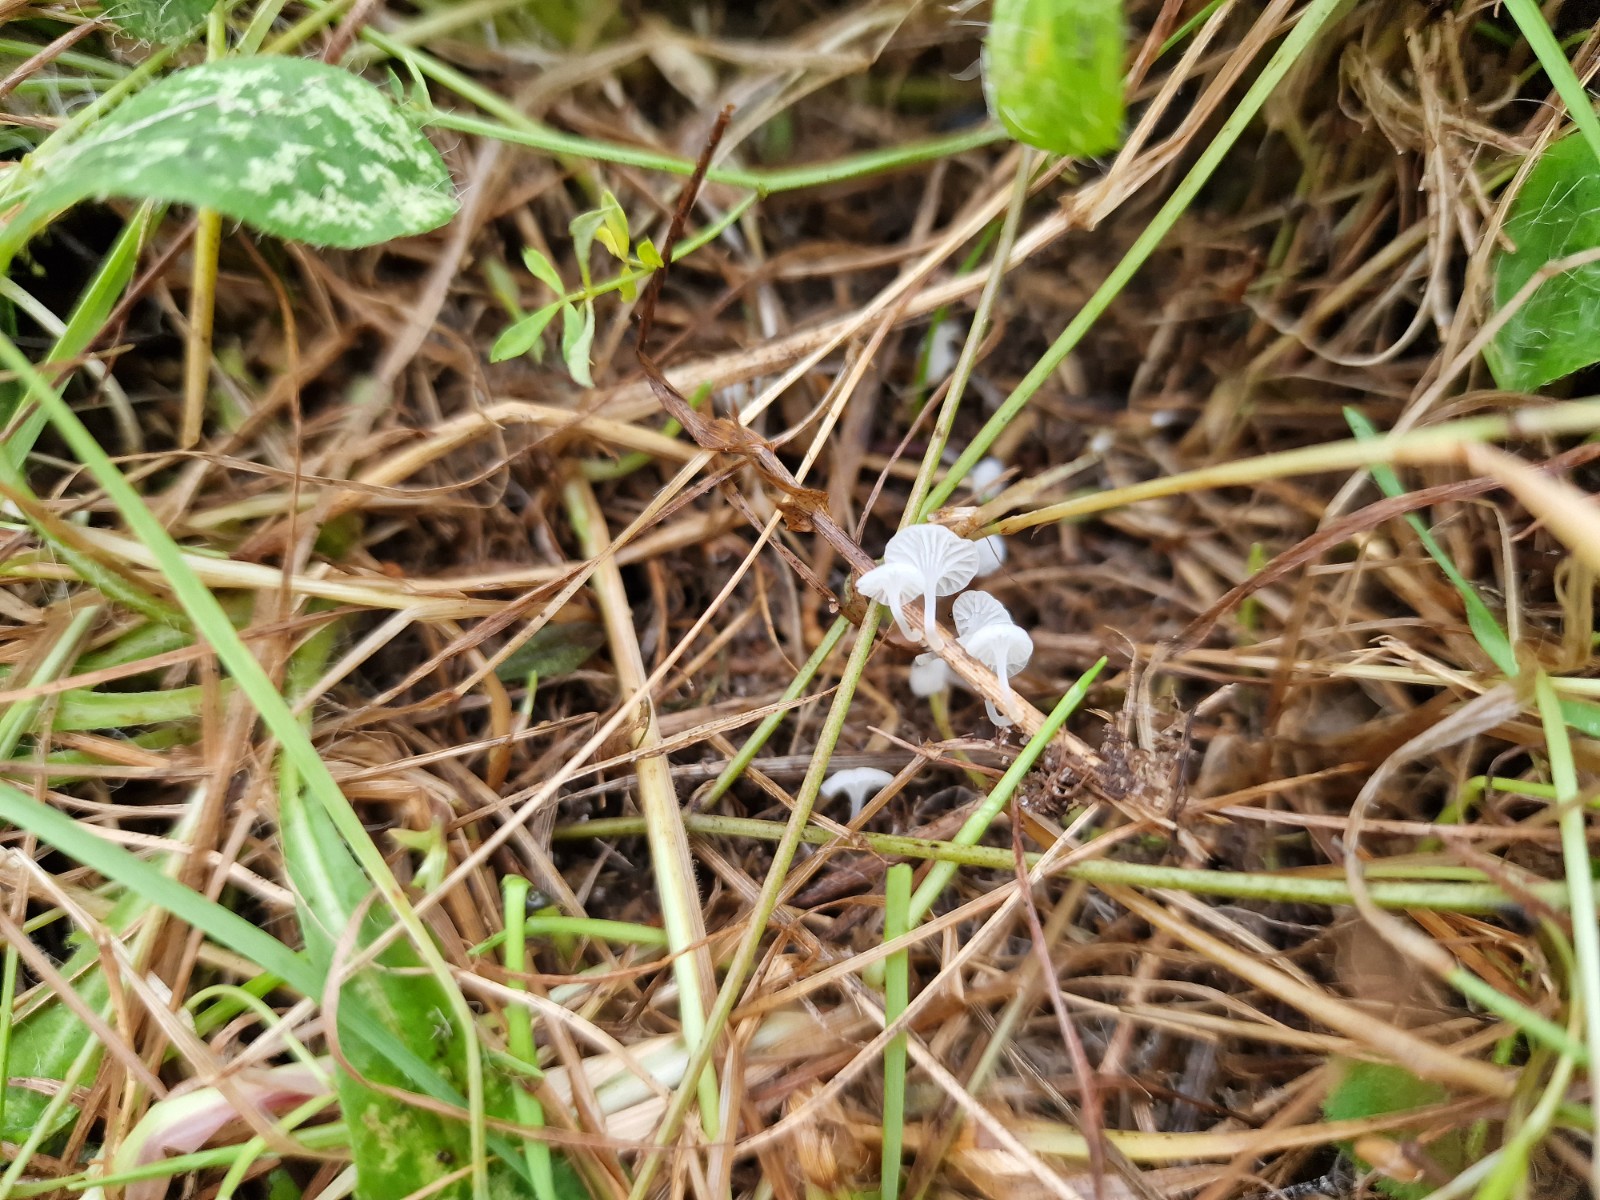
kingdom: Fungi
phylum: Basidiomycota
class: Agaricomycetes
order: Agaricales
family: Mycenaceae
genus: Atheniella
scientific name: Atheniella delectabilis
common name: nitrøs huesvamp
